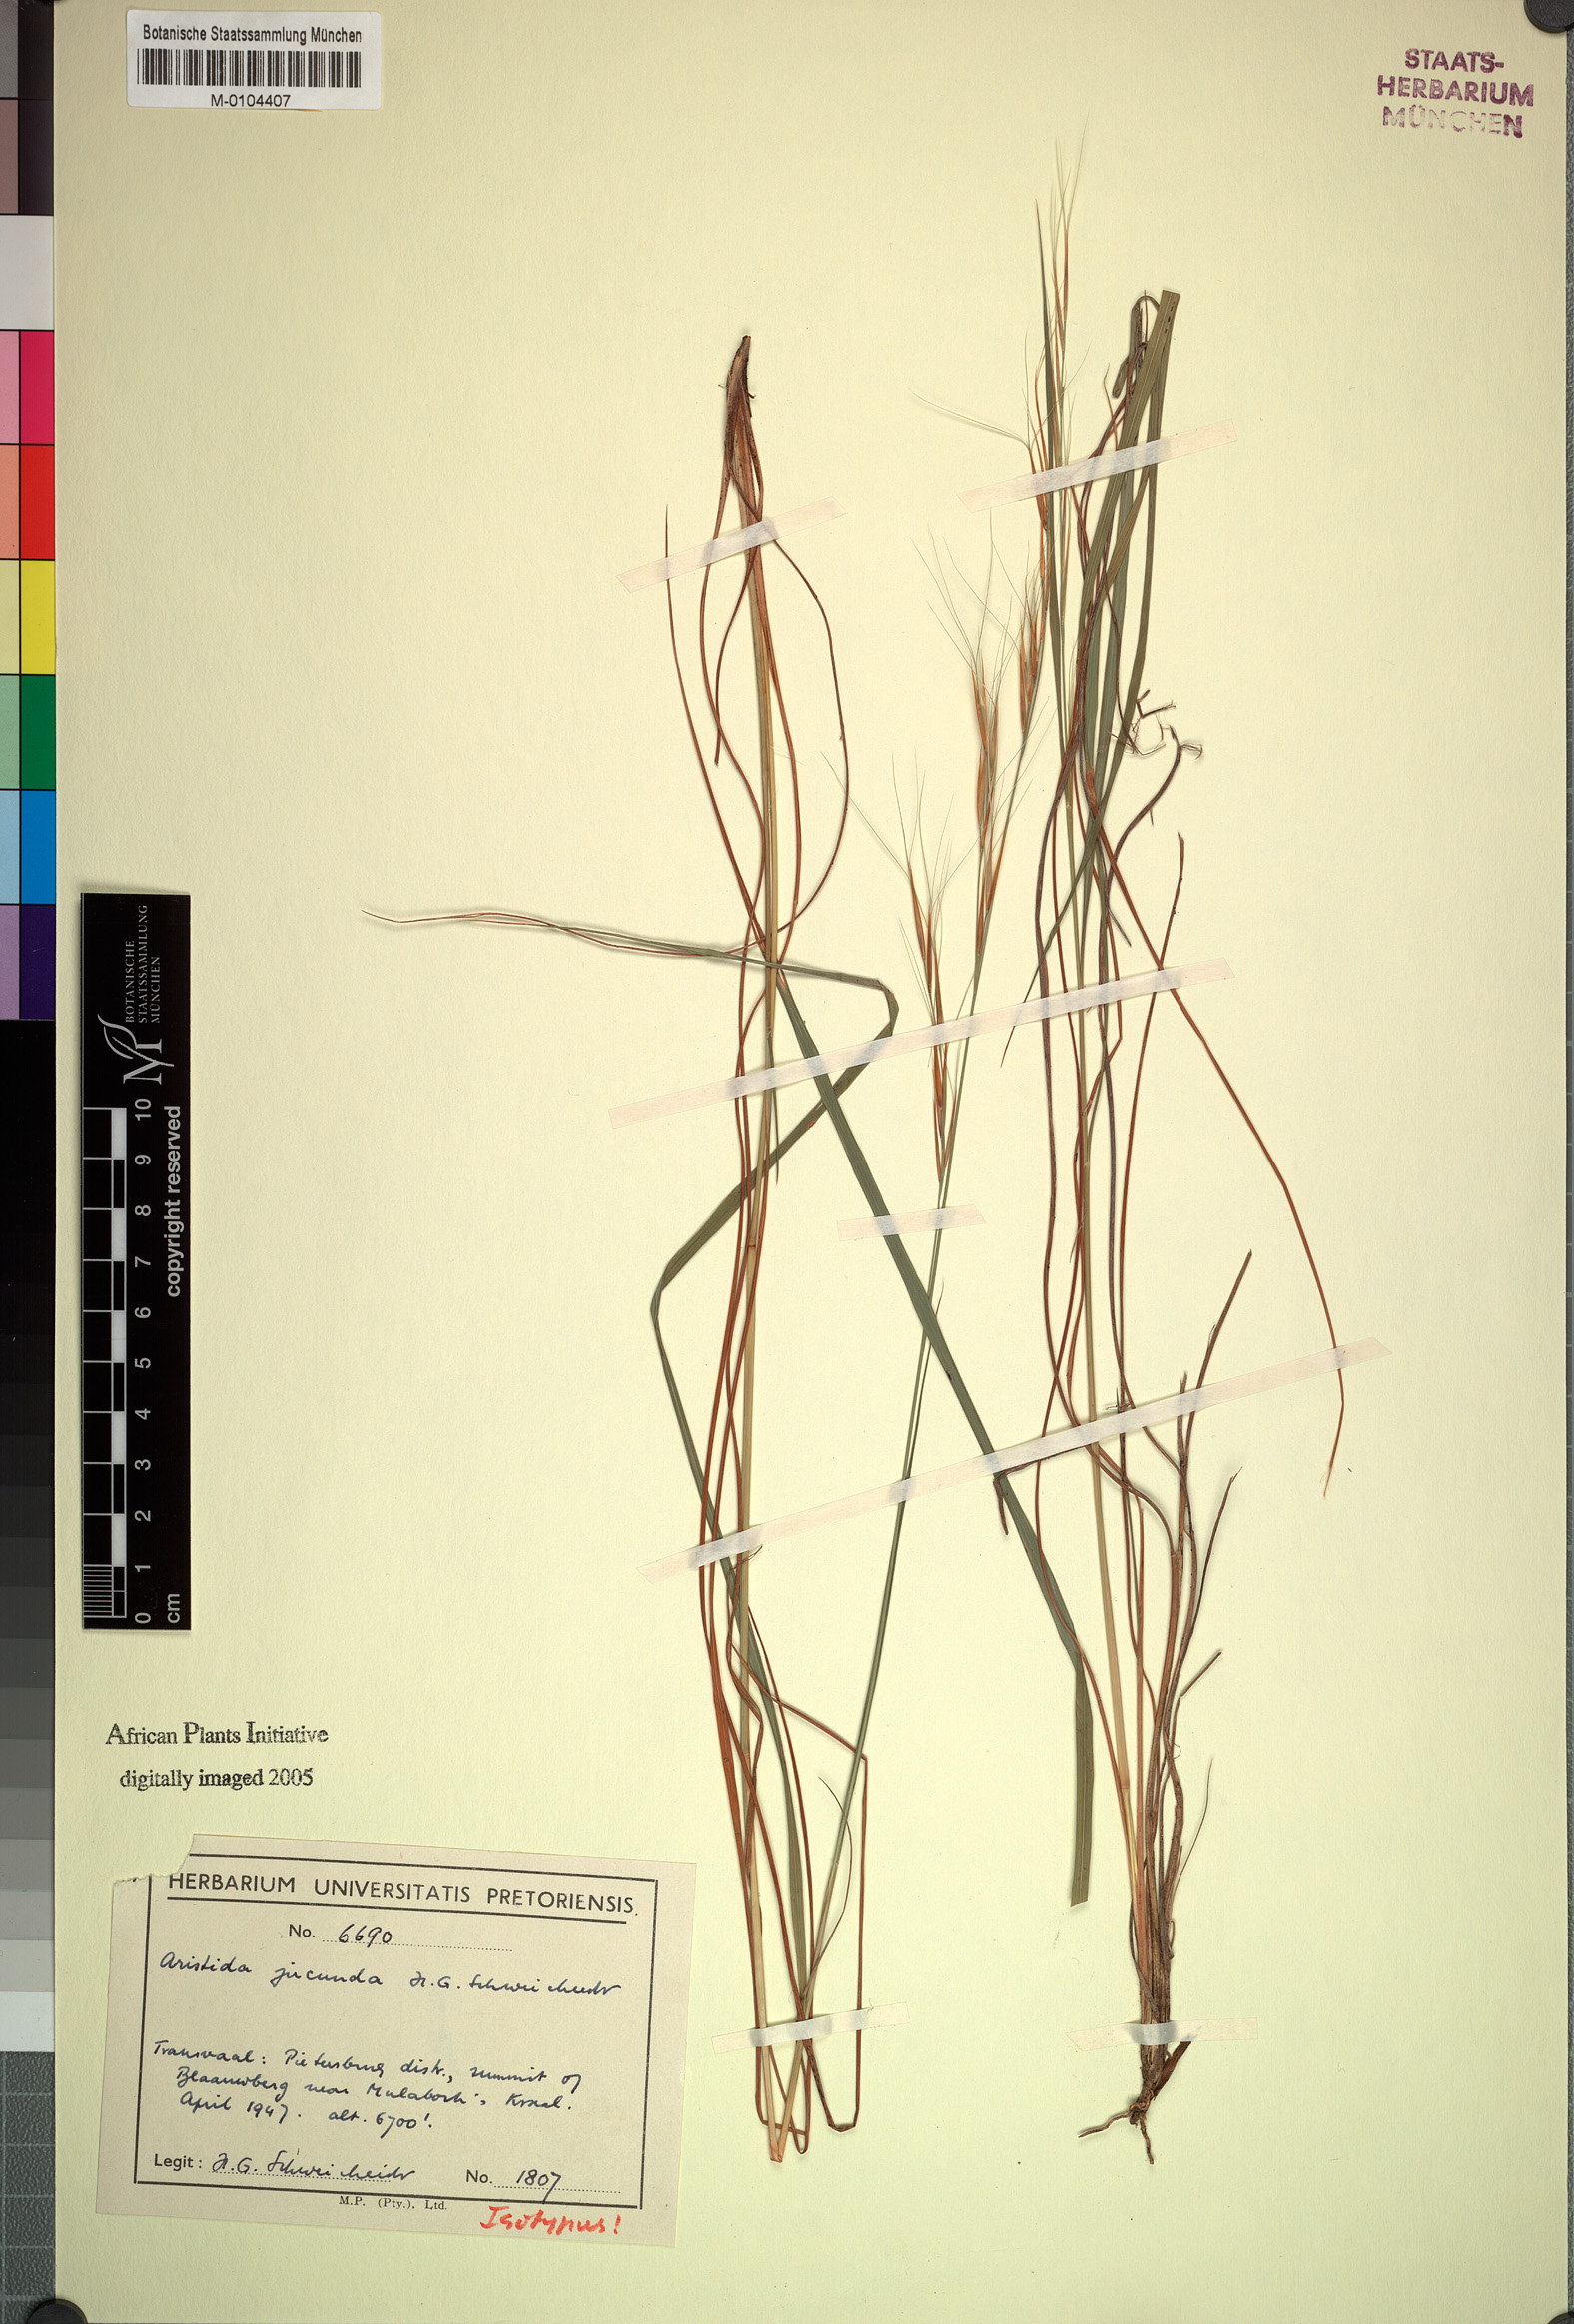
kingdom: Plantae
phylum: Tracheophyta
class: Liliopsida
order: Poales
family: Poaceae
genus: Sartidia
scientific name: Sartidia jucunda
